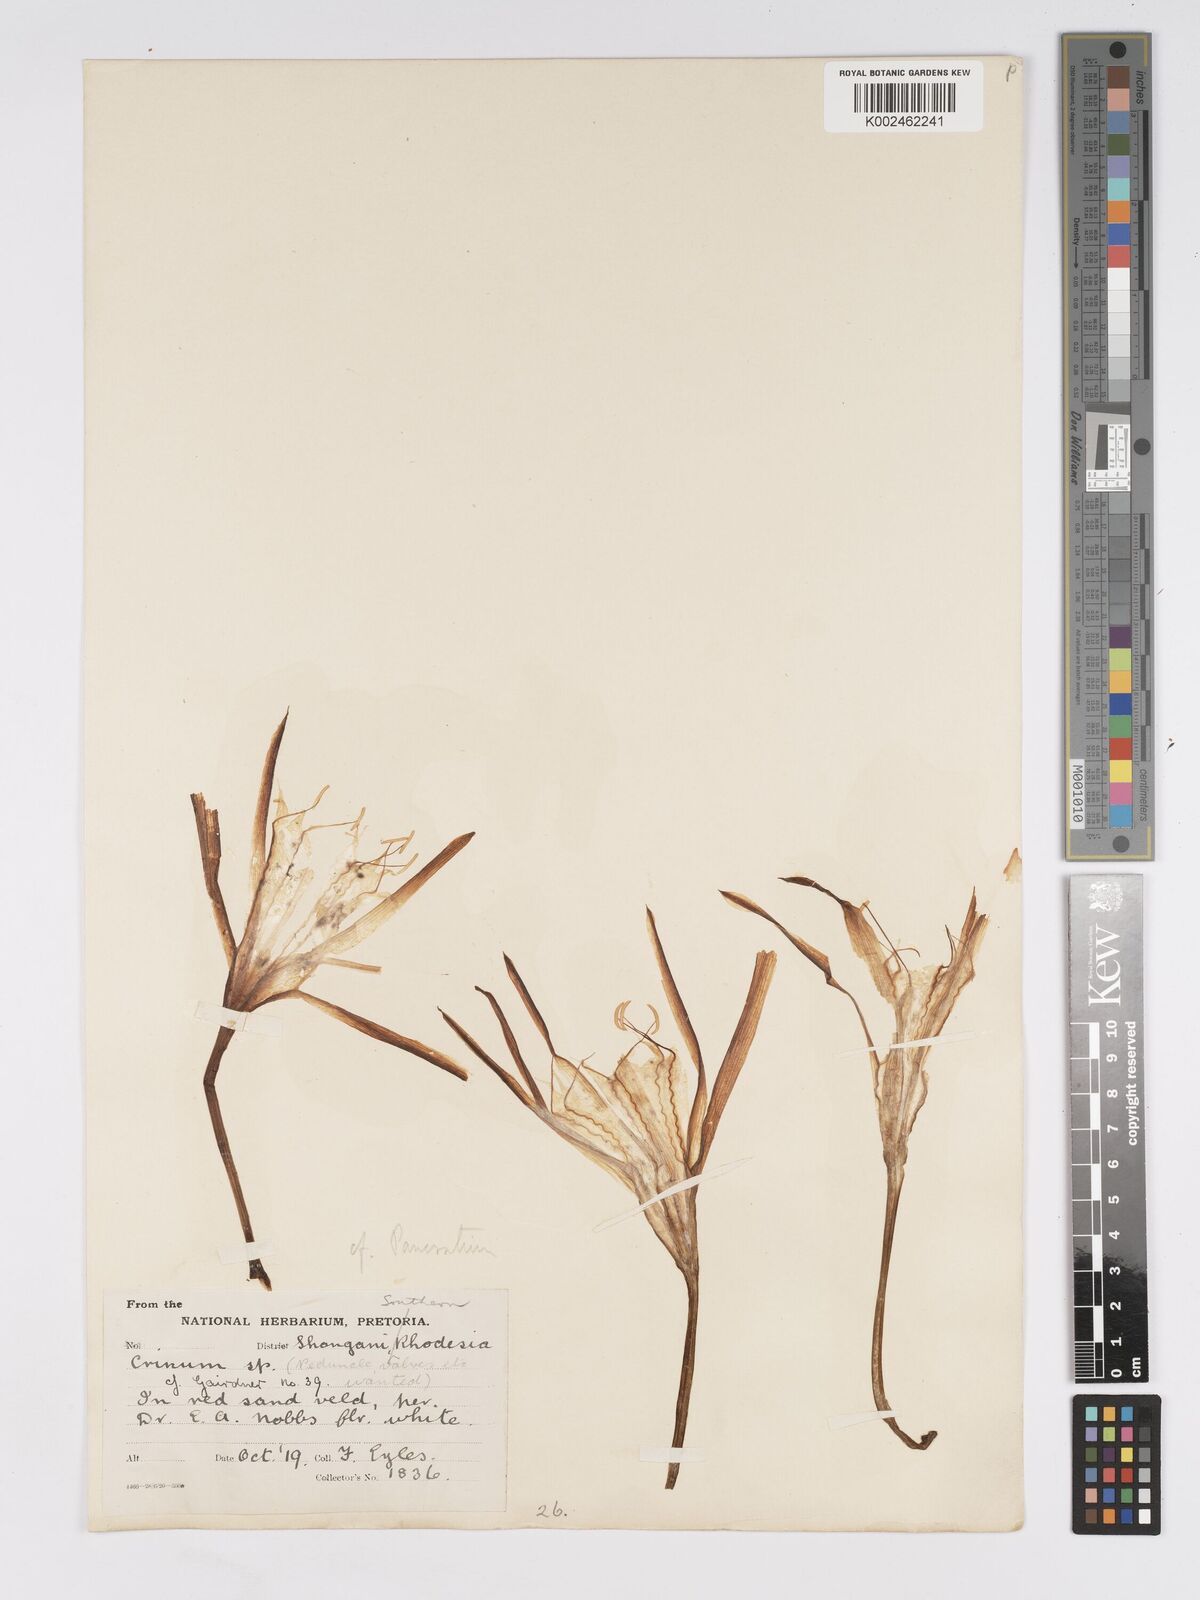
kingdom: Plantae
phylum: Tracheophyta
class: Liliopsida
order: Asparagales
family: Amaryllidaceae
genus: Pancratium
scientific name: Pancratium trianthum
